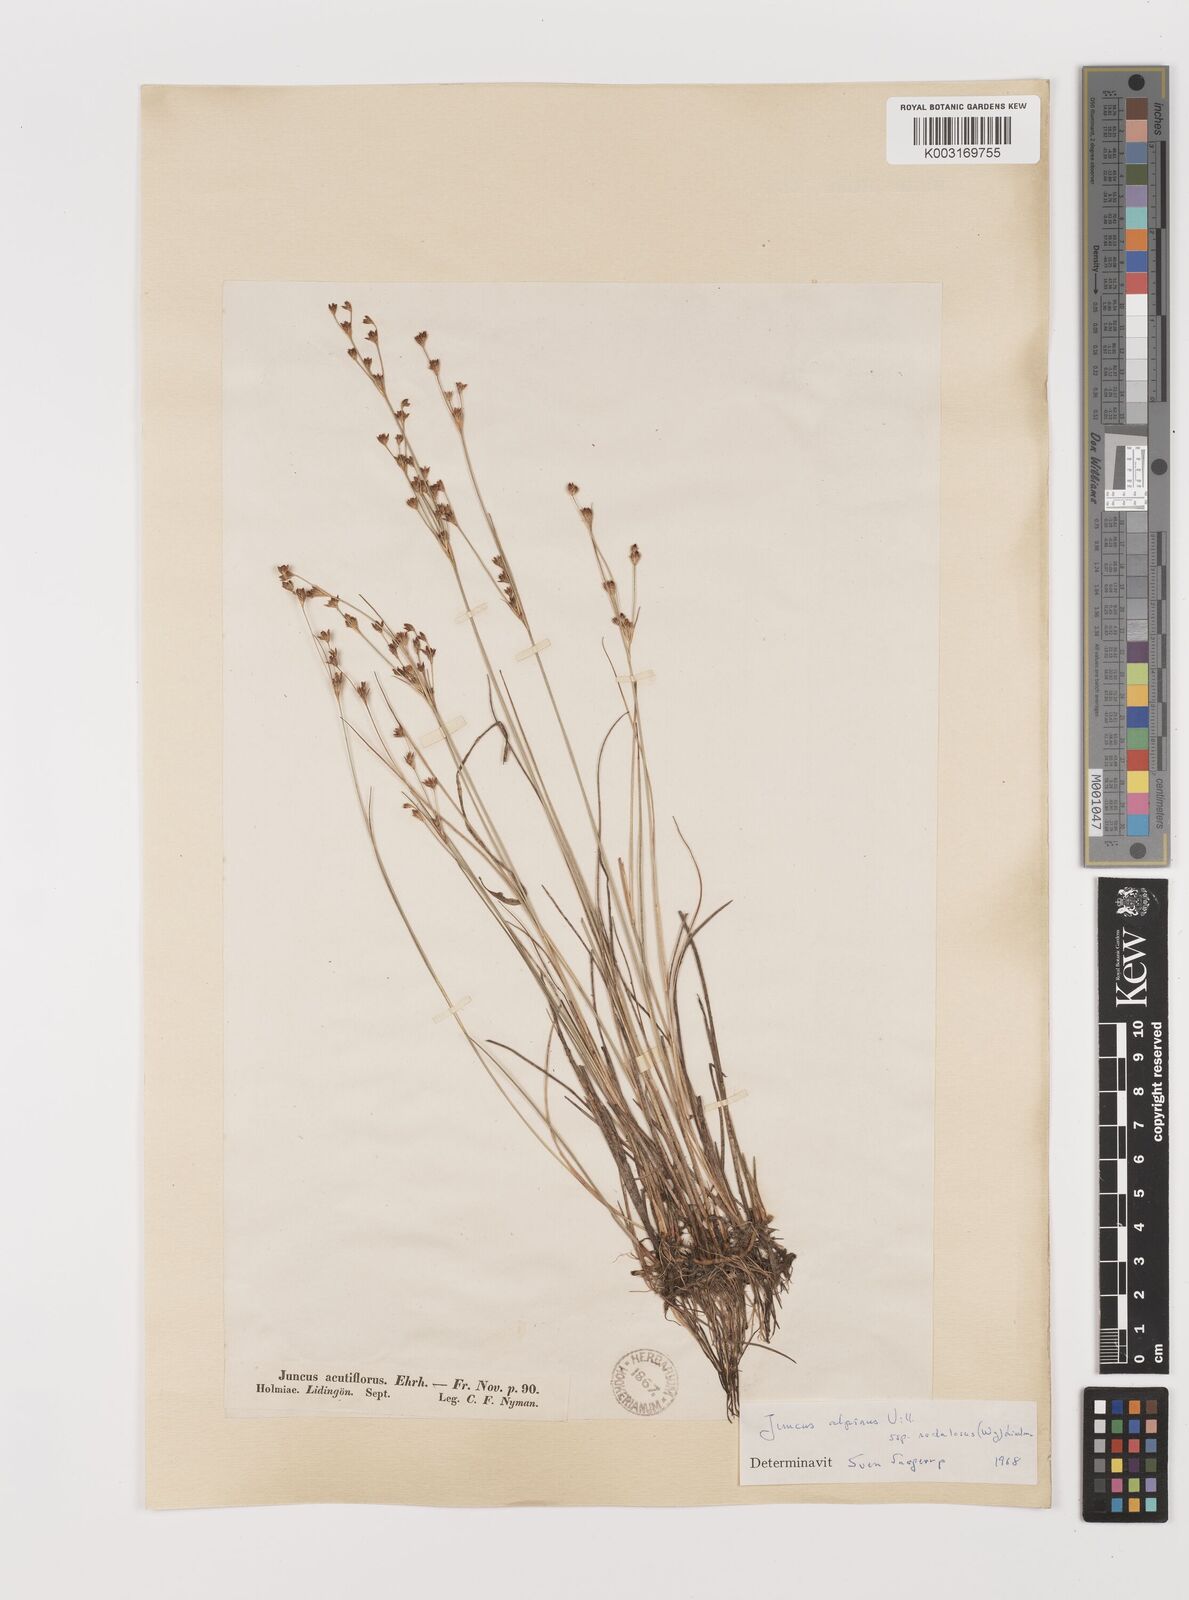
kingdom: Plantae
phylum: Tracheophyta
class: Liliopsida
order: Poales
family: Juncaceae
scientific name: Juncaceae
